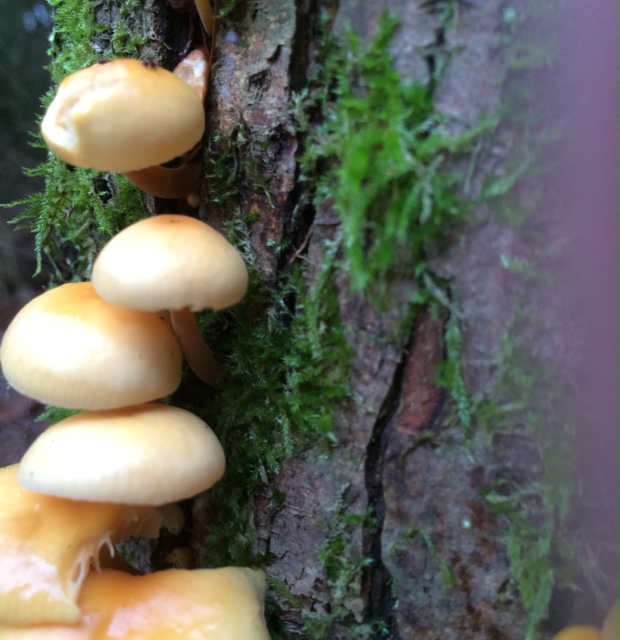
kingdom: Fungi
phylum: Basidiomycota
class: Agaricomycetes
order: Agaricales
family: Physalacriaceae
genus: Flammulina
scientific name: Flammulina elastica
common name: pile-fløjlsfod
